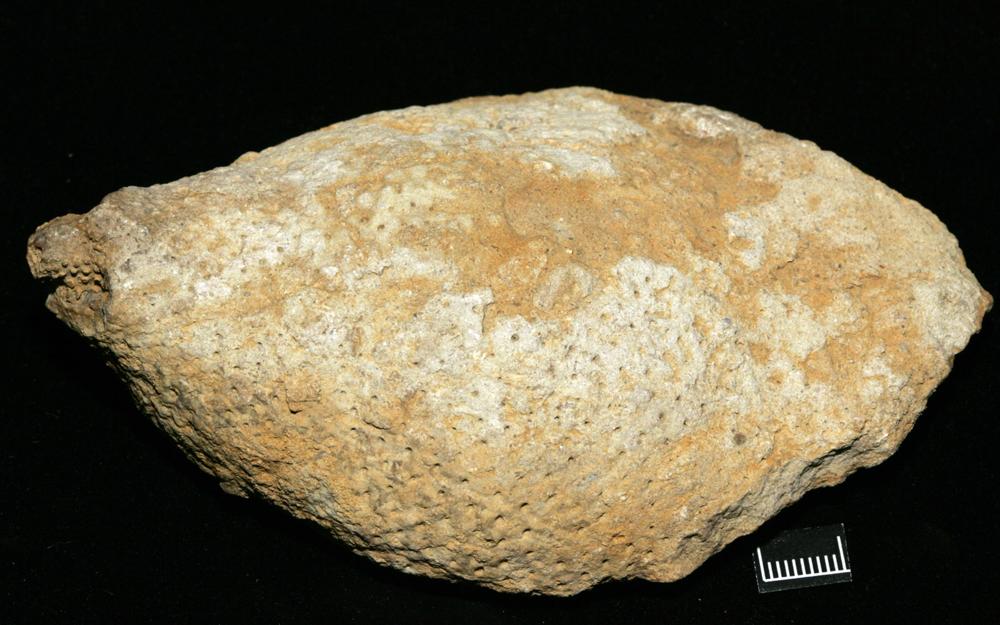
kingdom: Plantae
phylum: Chlorophyta
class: Chlorophyceae
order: Receptaculitales
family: Receptaculitaceae
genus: Ischadites
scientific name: Ischadites
